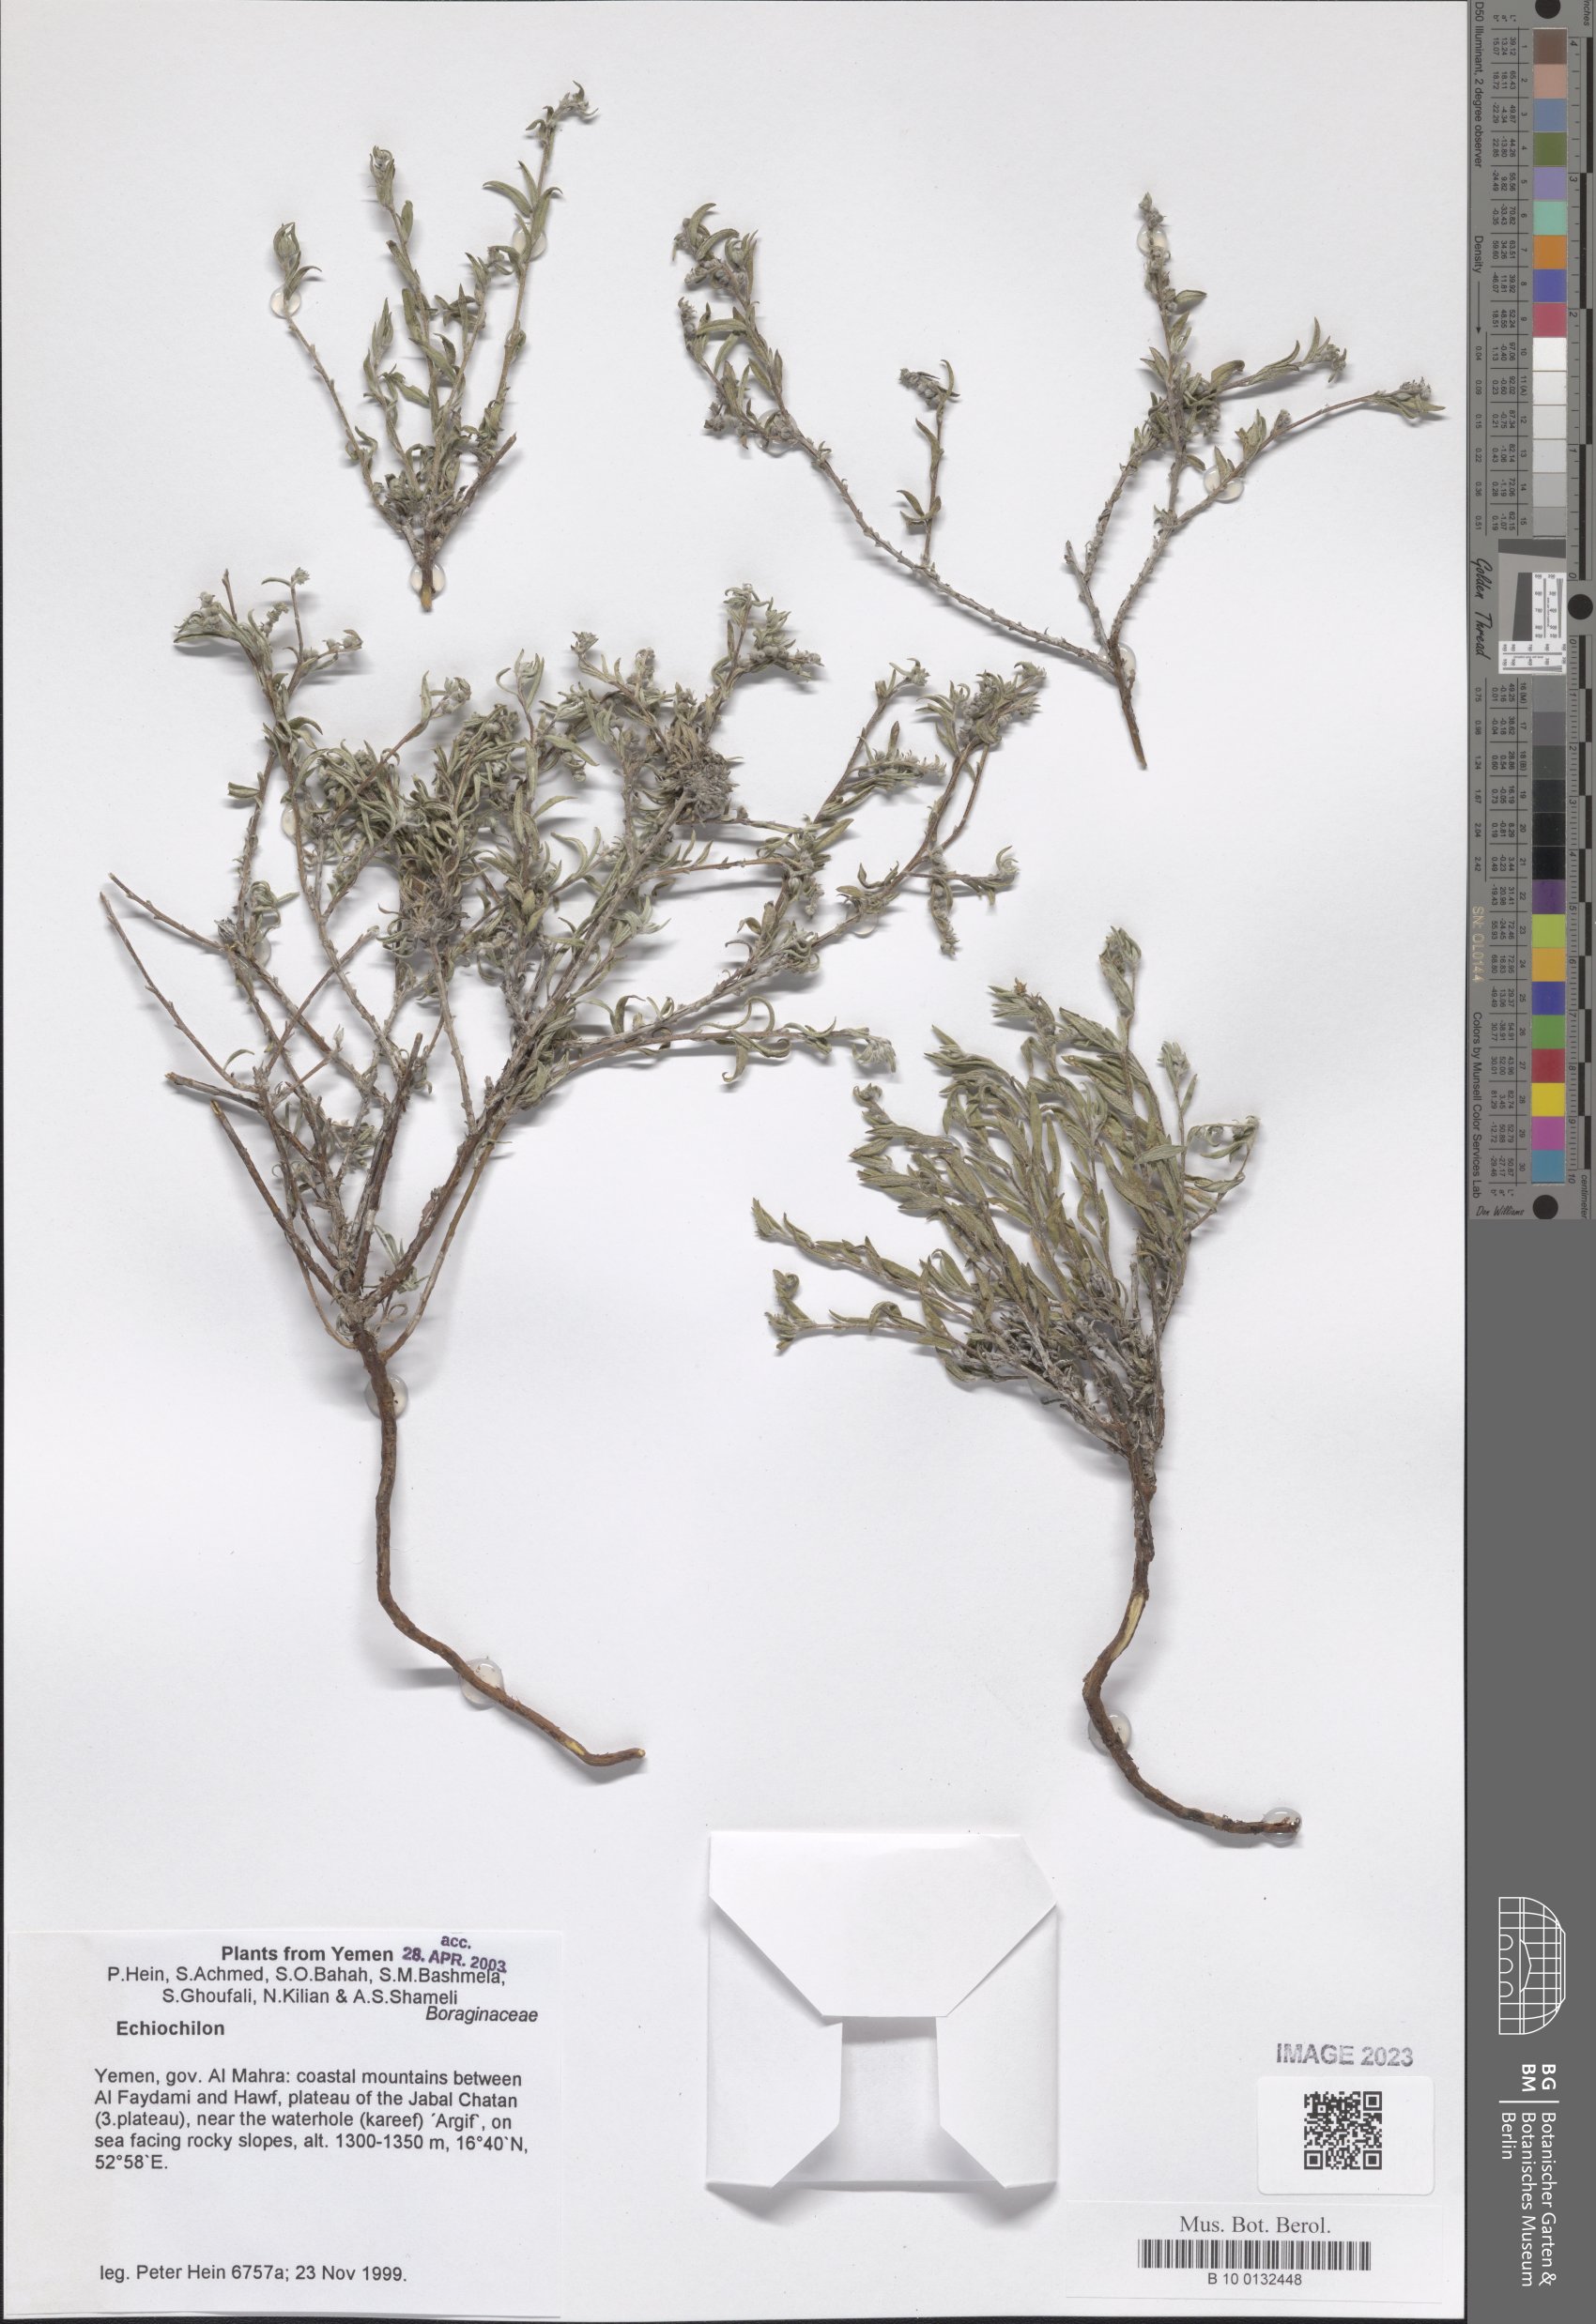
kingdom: Plantae
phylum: Tracheophyta
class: Magnoliopsida
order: Boraginales
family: Boraginaceae
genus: Echiochilon
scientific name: Echiochilon
